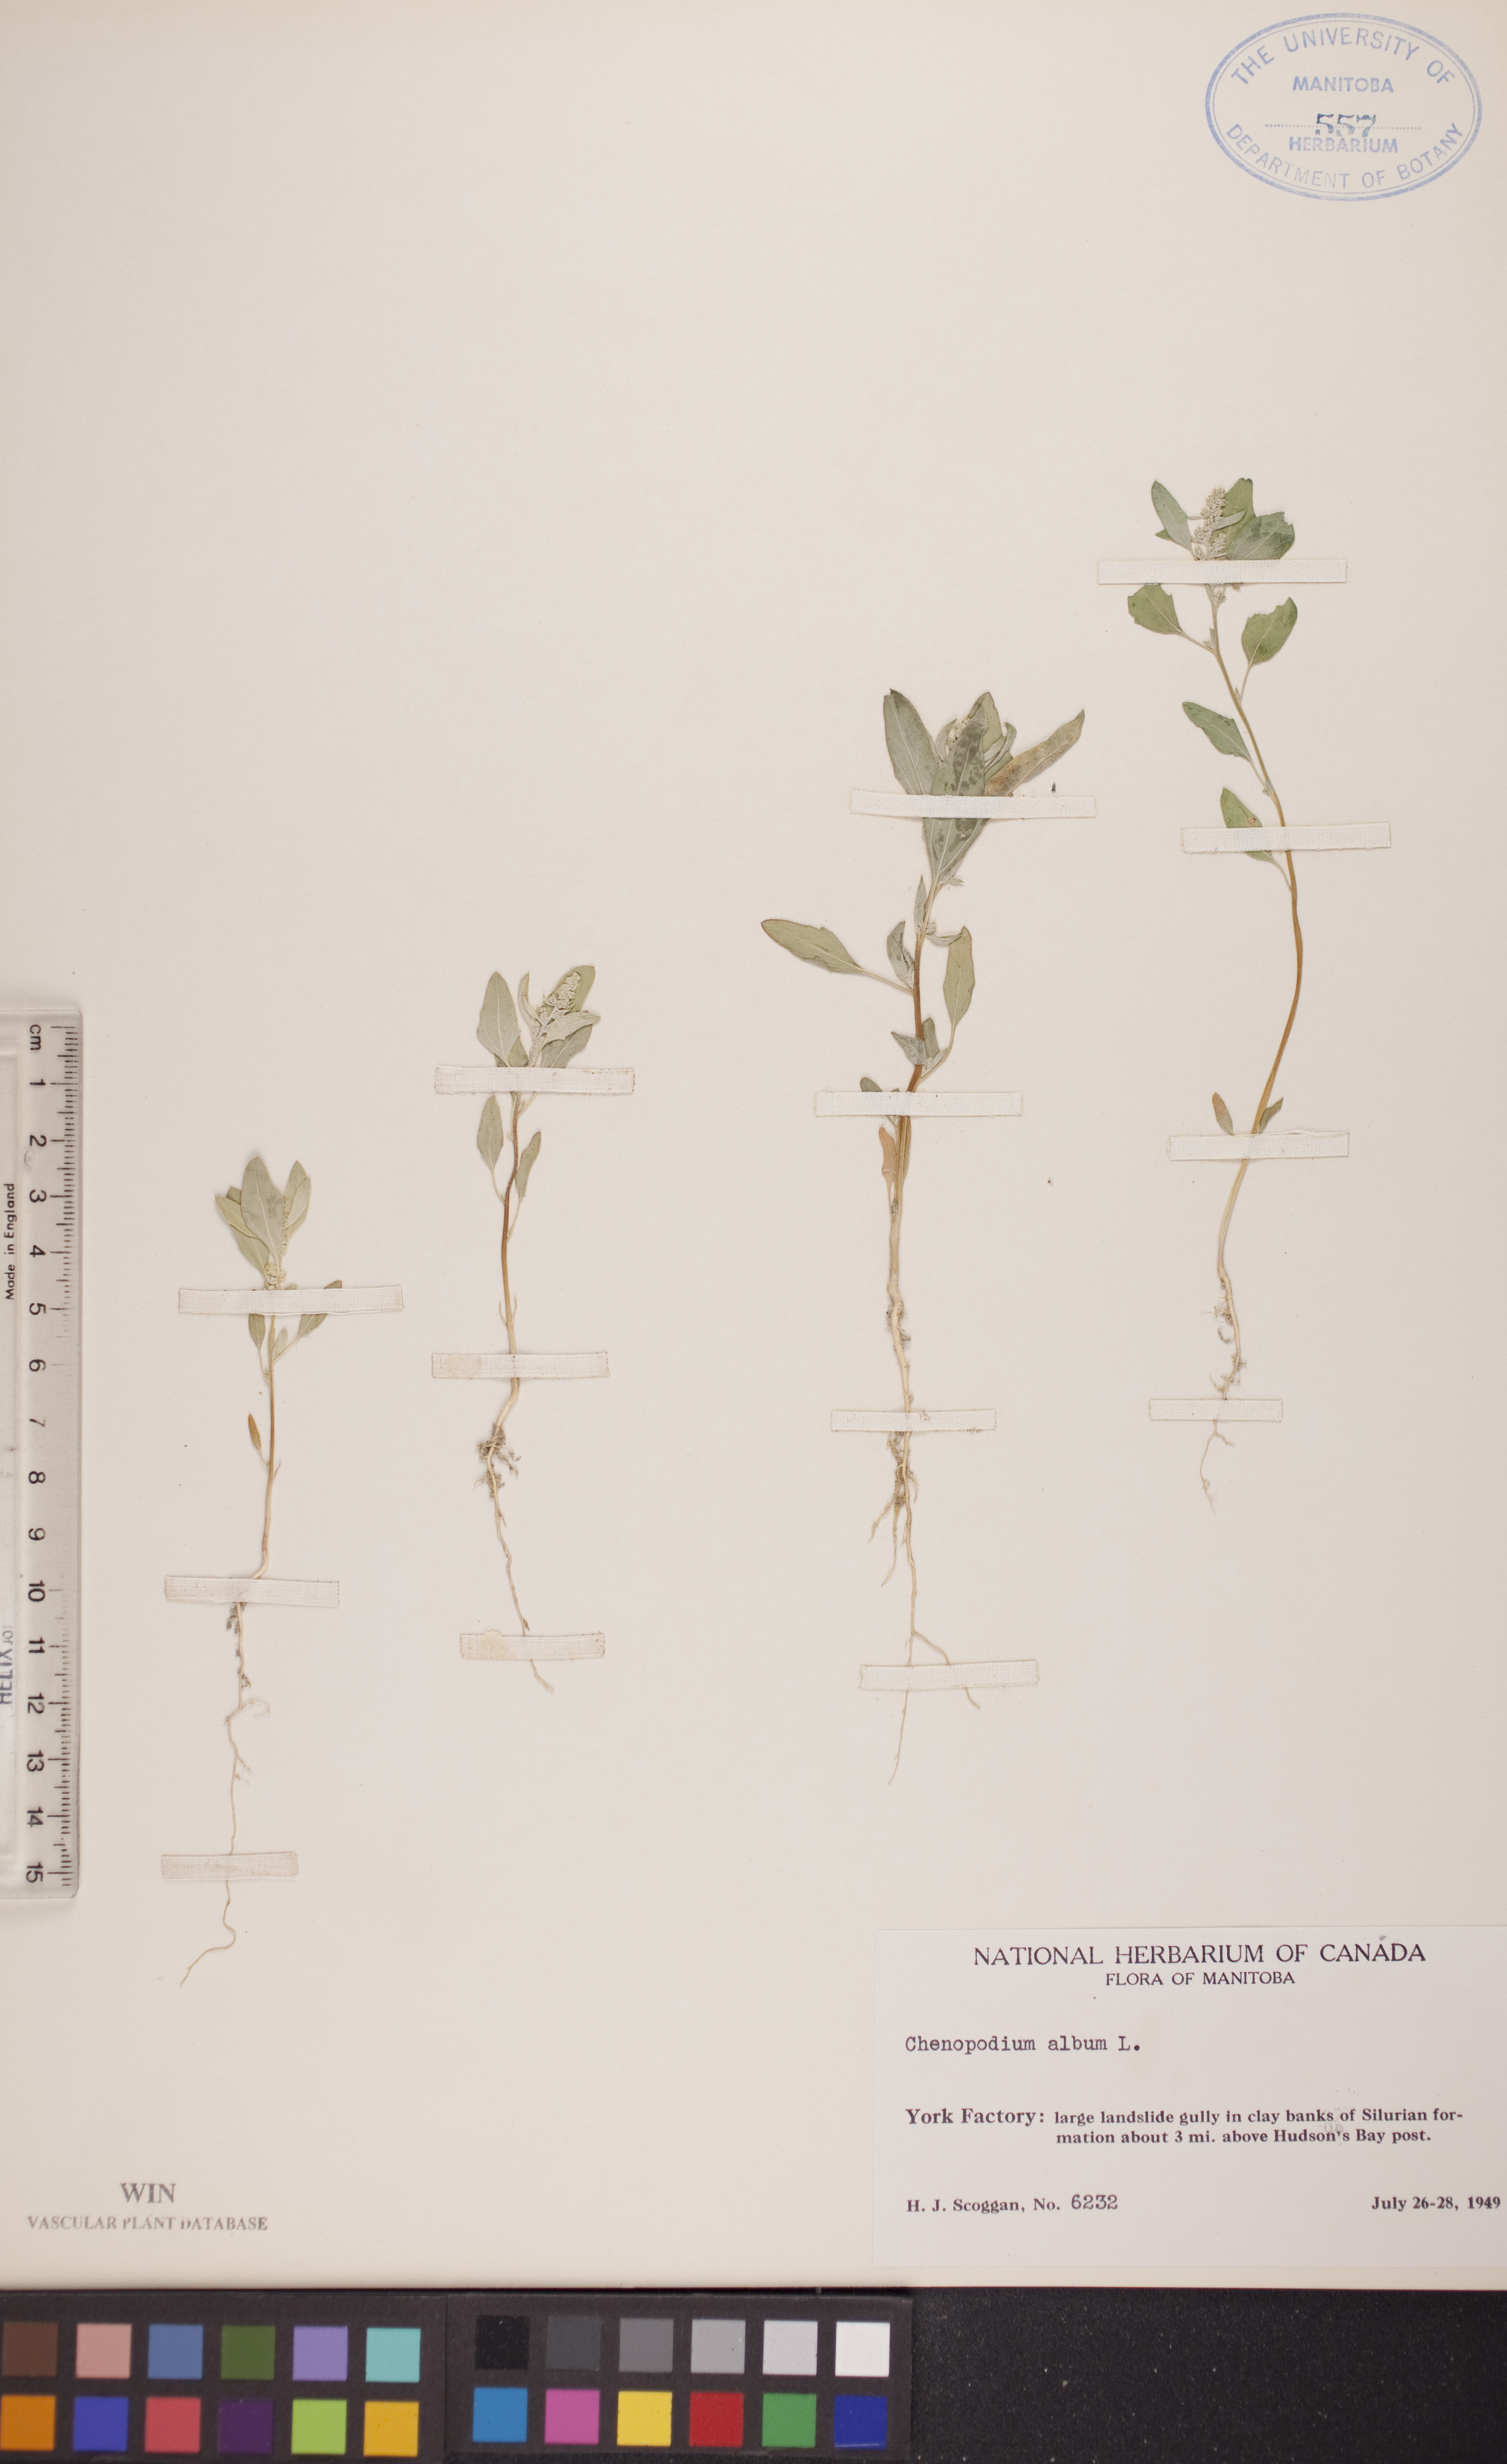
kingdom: Plantae
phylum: Tracheophyta
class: Magnoliopsida
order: Caryophyllales
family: Amaranthaceae
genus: Chenopodium
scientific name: Chenopodium album
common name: Fat-hen
